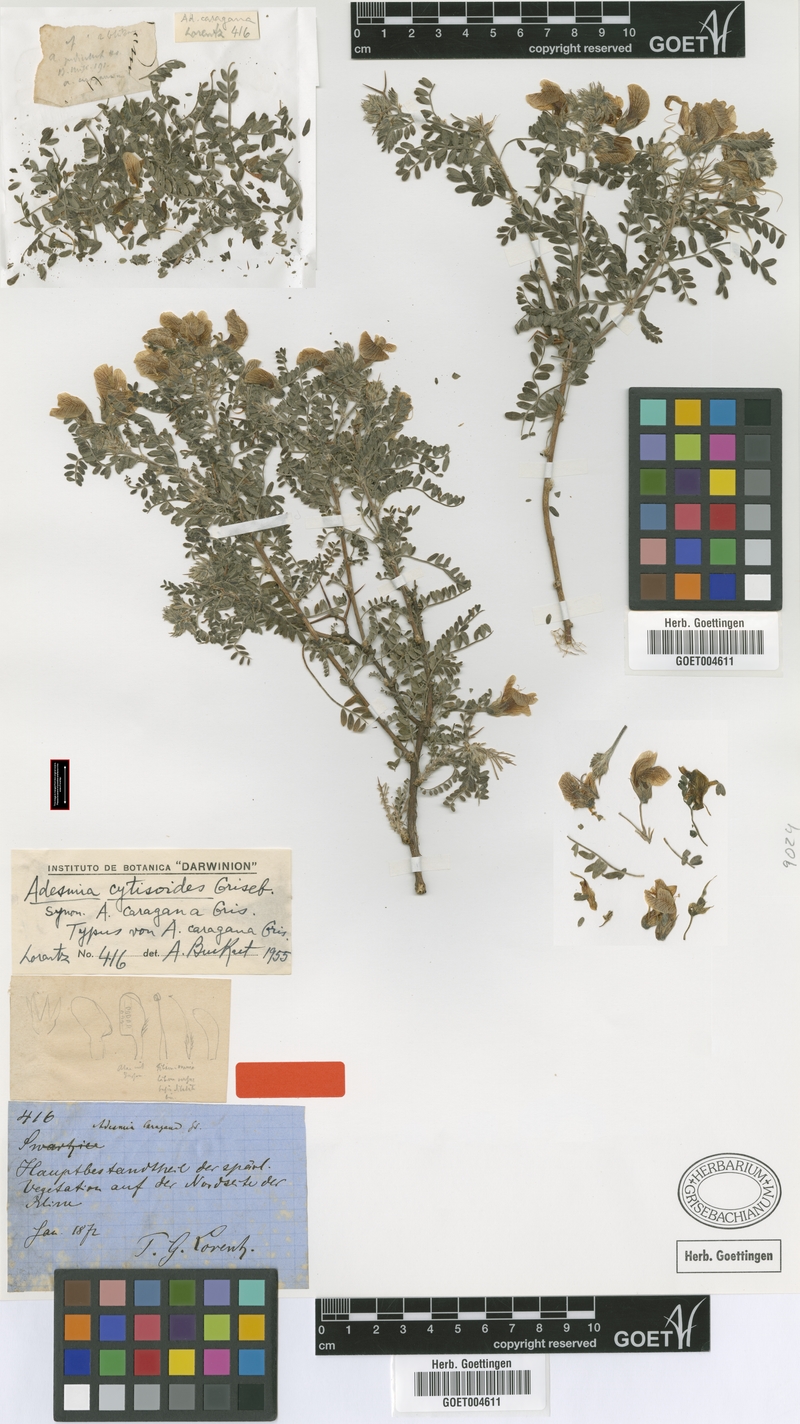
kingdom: Plantae
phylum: Tracheophyta
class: Magnoliopsida
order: Fabales
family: Fabaceae
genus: Adesmia
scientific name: Adesmia cytisoides
